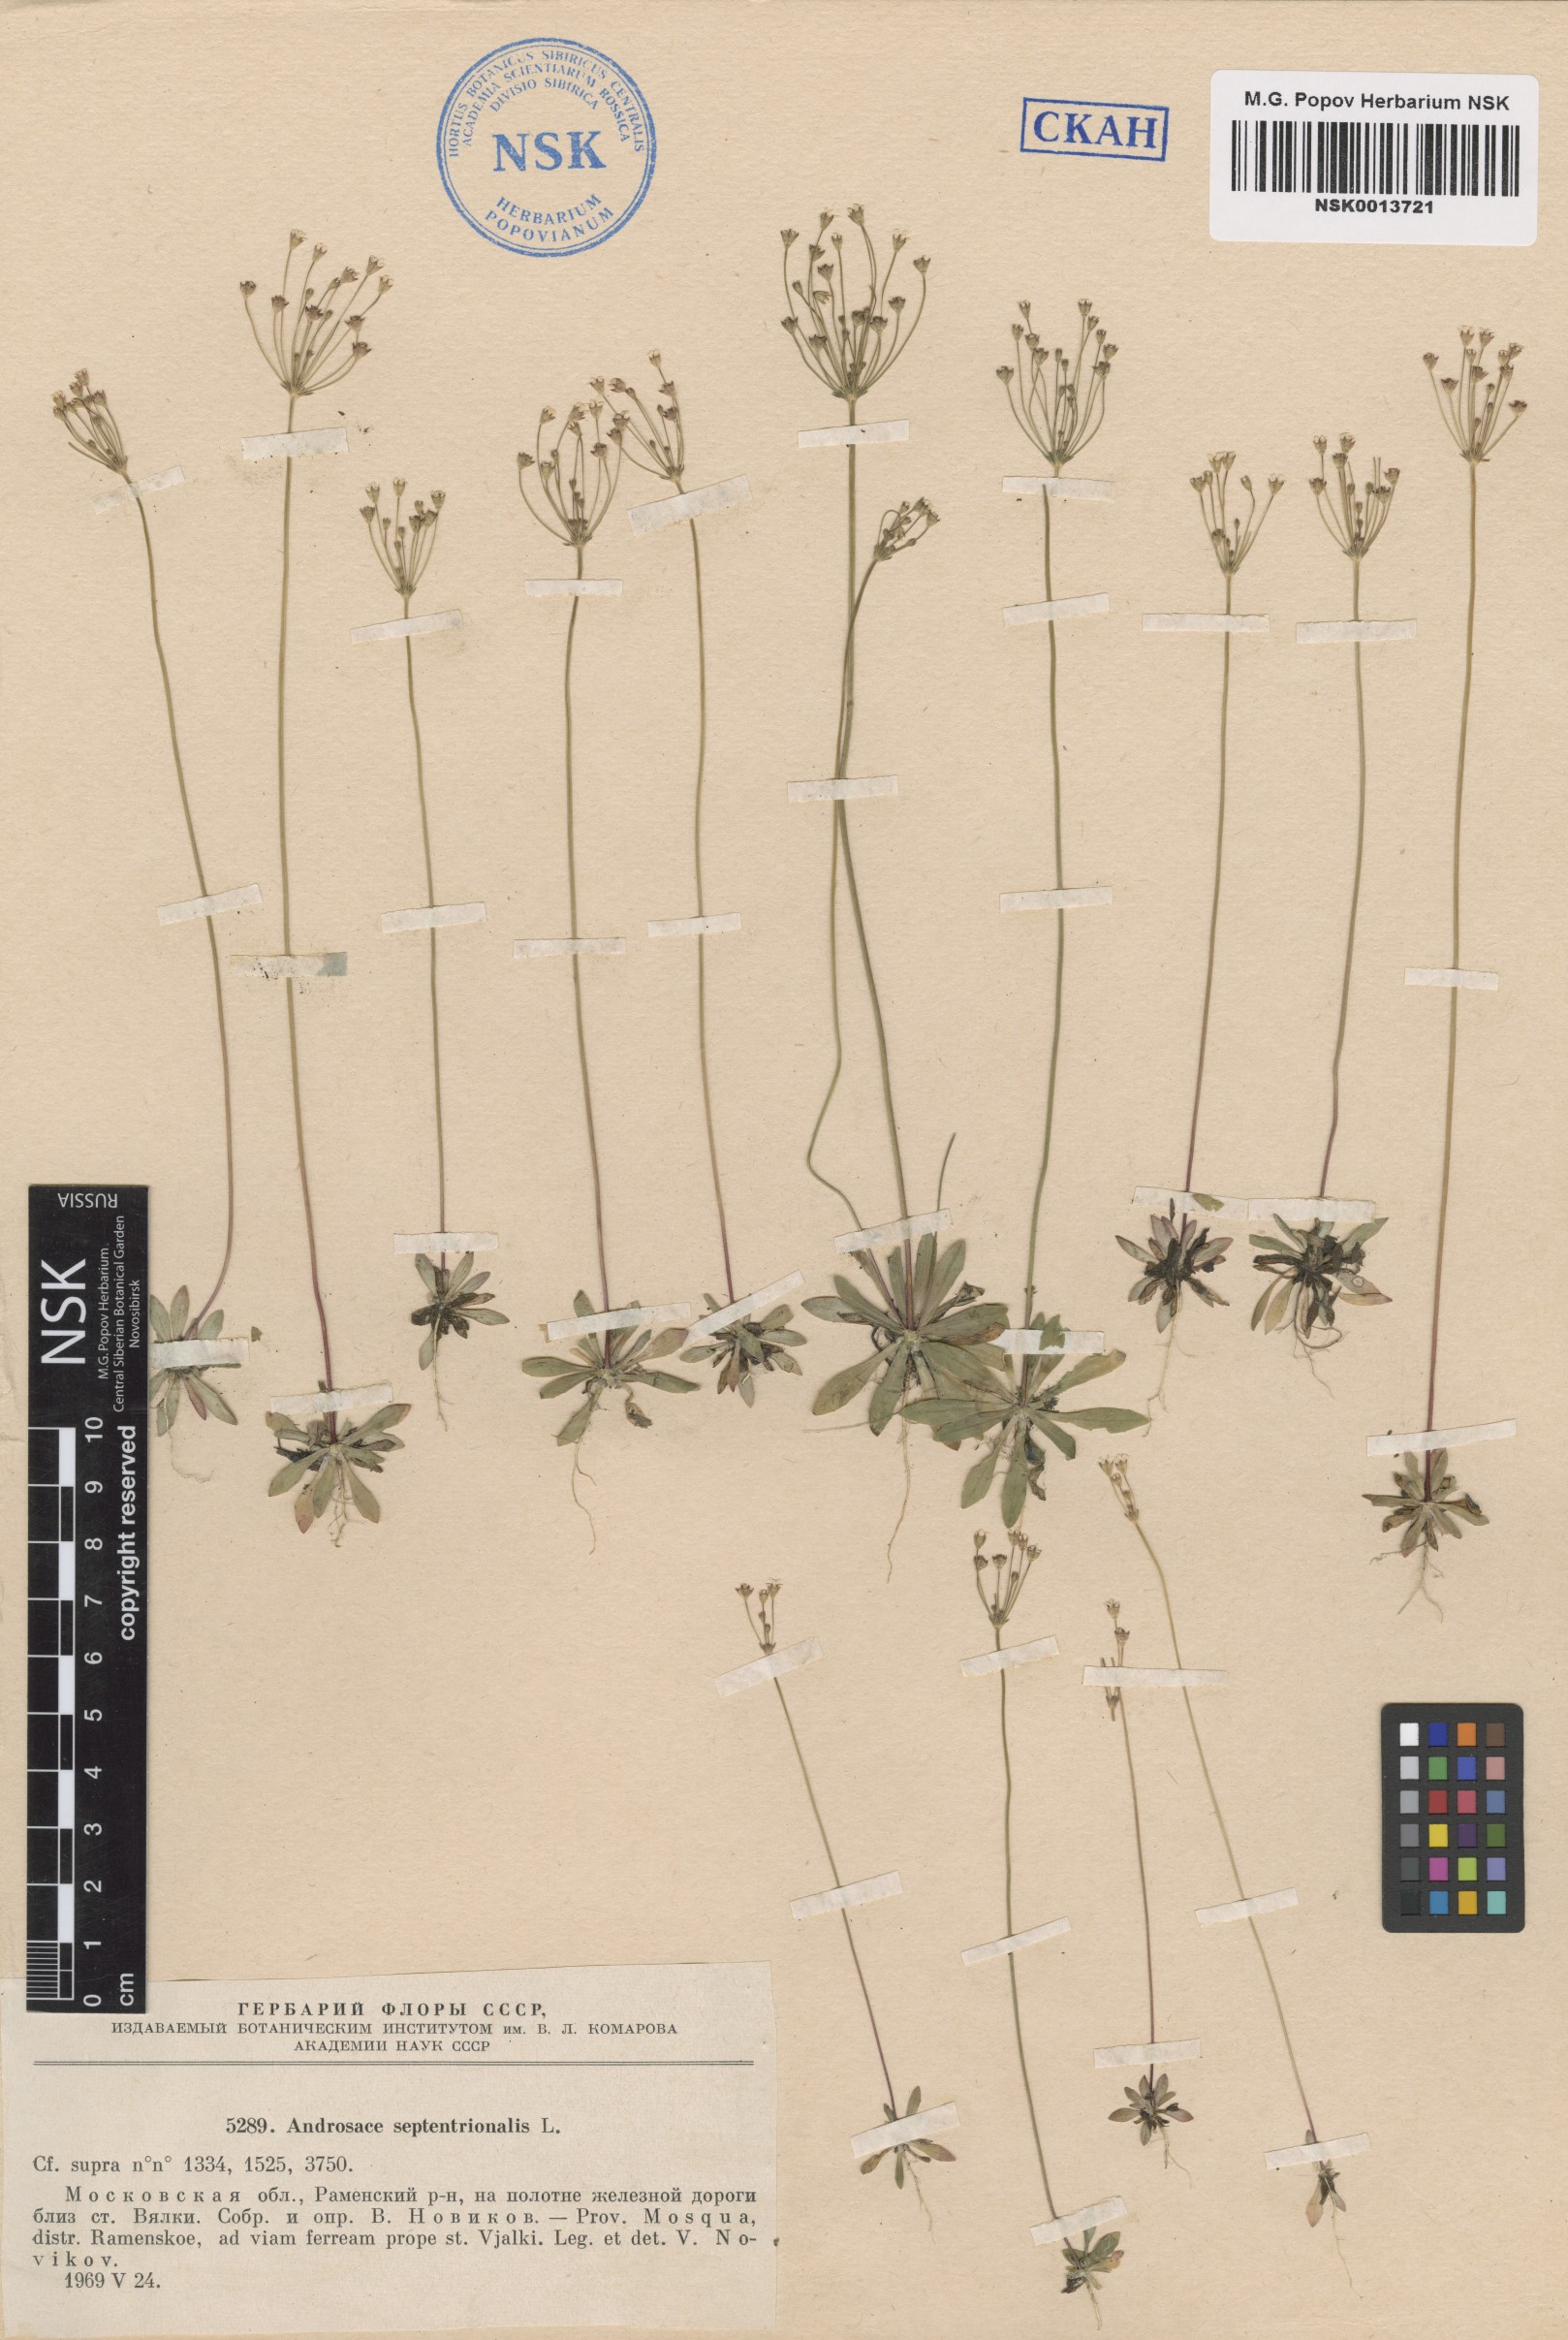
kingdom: Plantae
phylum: Tracheophyta
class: Magnoliopsida
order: Ericales
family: Primulaceae
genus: Androsace
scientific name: Androsace septentrionalis
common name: Hairy northern fairy-candelabra
